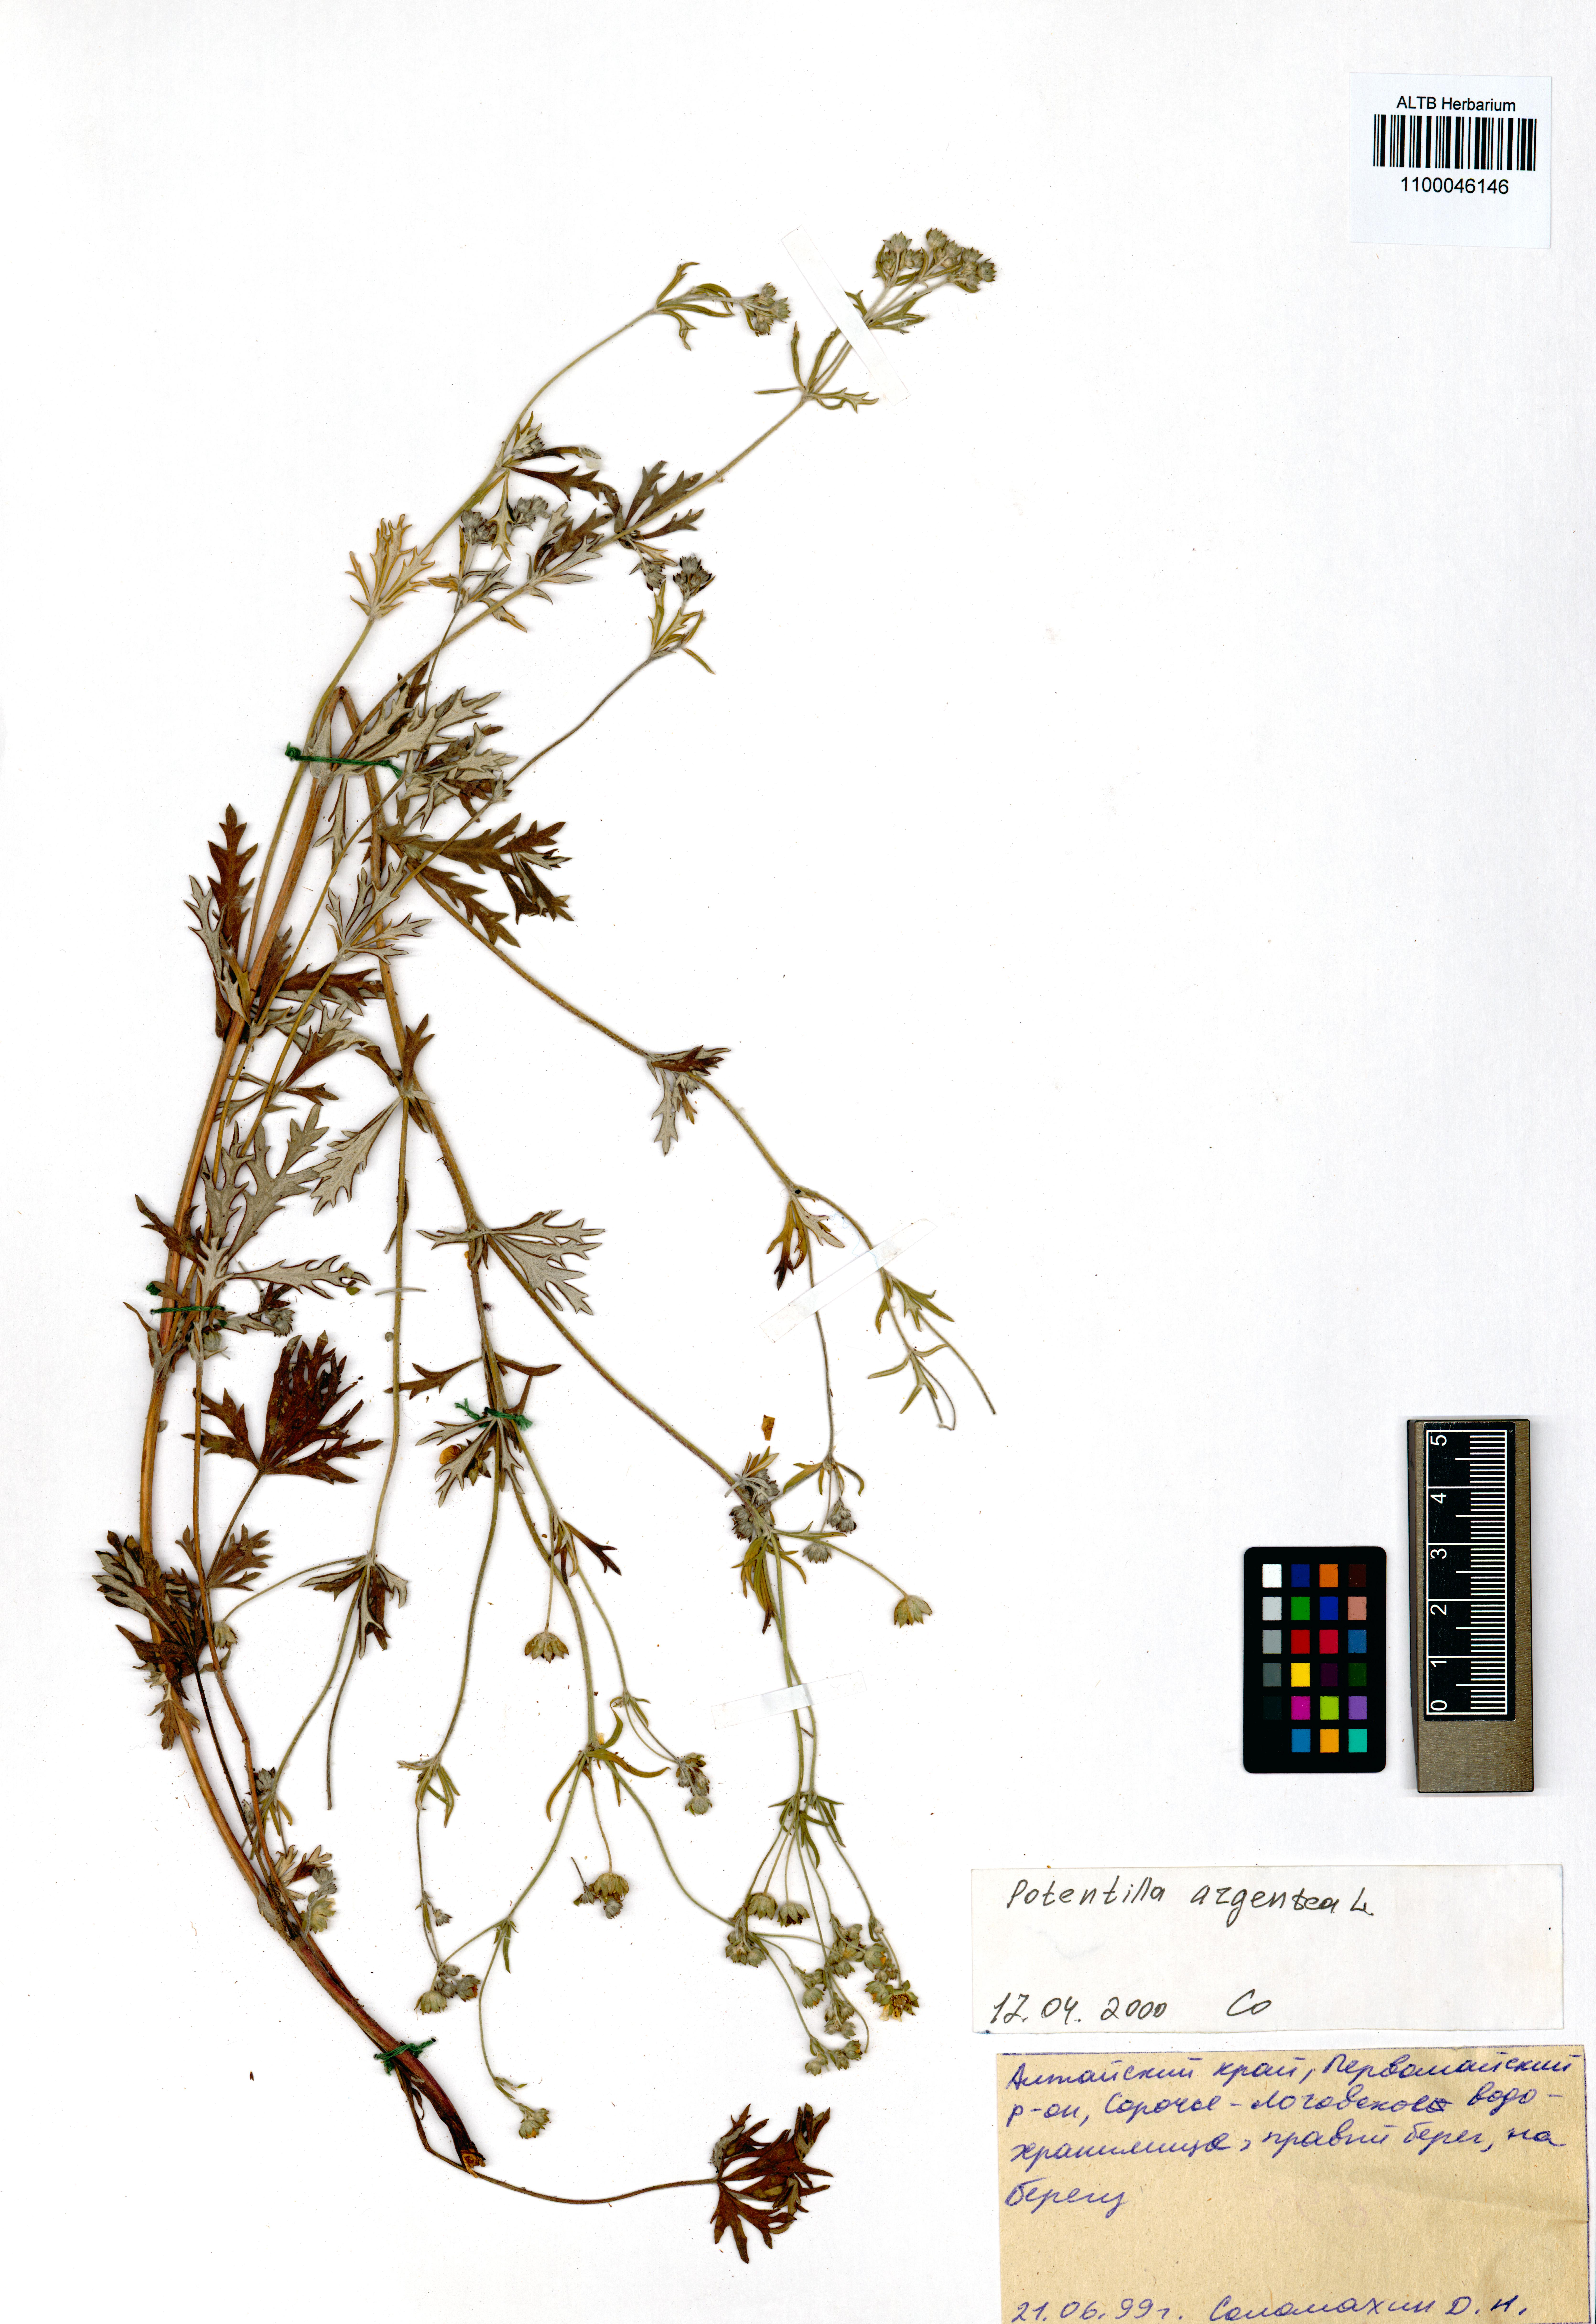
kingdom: Plantae
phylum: Tracheophyta
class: Magnoliopsida
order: Rosales
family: Rosaceae
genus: Potentilla
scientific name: Potentilla argentea
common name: Hoary cinquefoil
